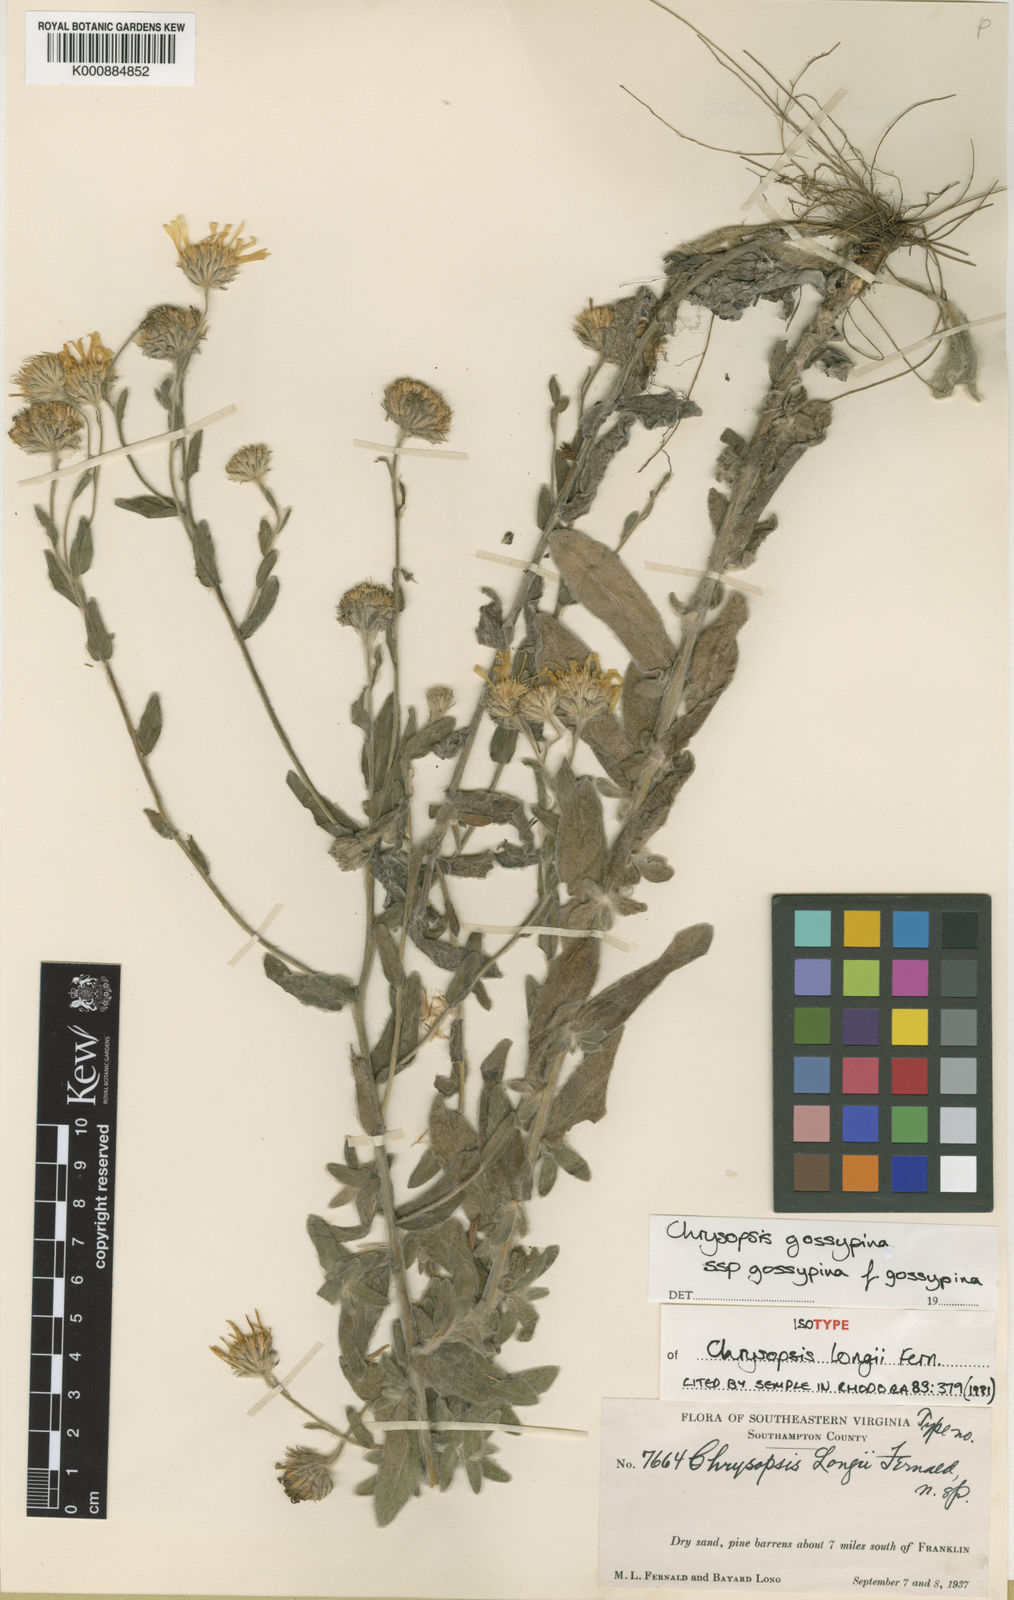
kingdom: Plantae
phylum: Tracheophyta
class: Magnoliopsida
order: Asterales
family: Asteraceae
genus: Chrysopsis
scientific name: Chrysopsis
